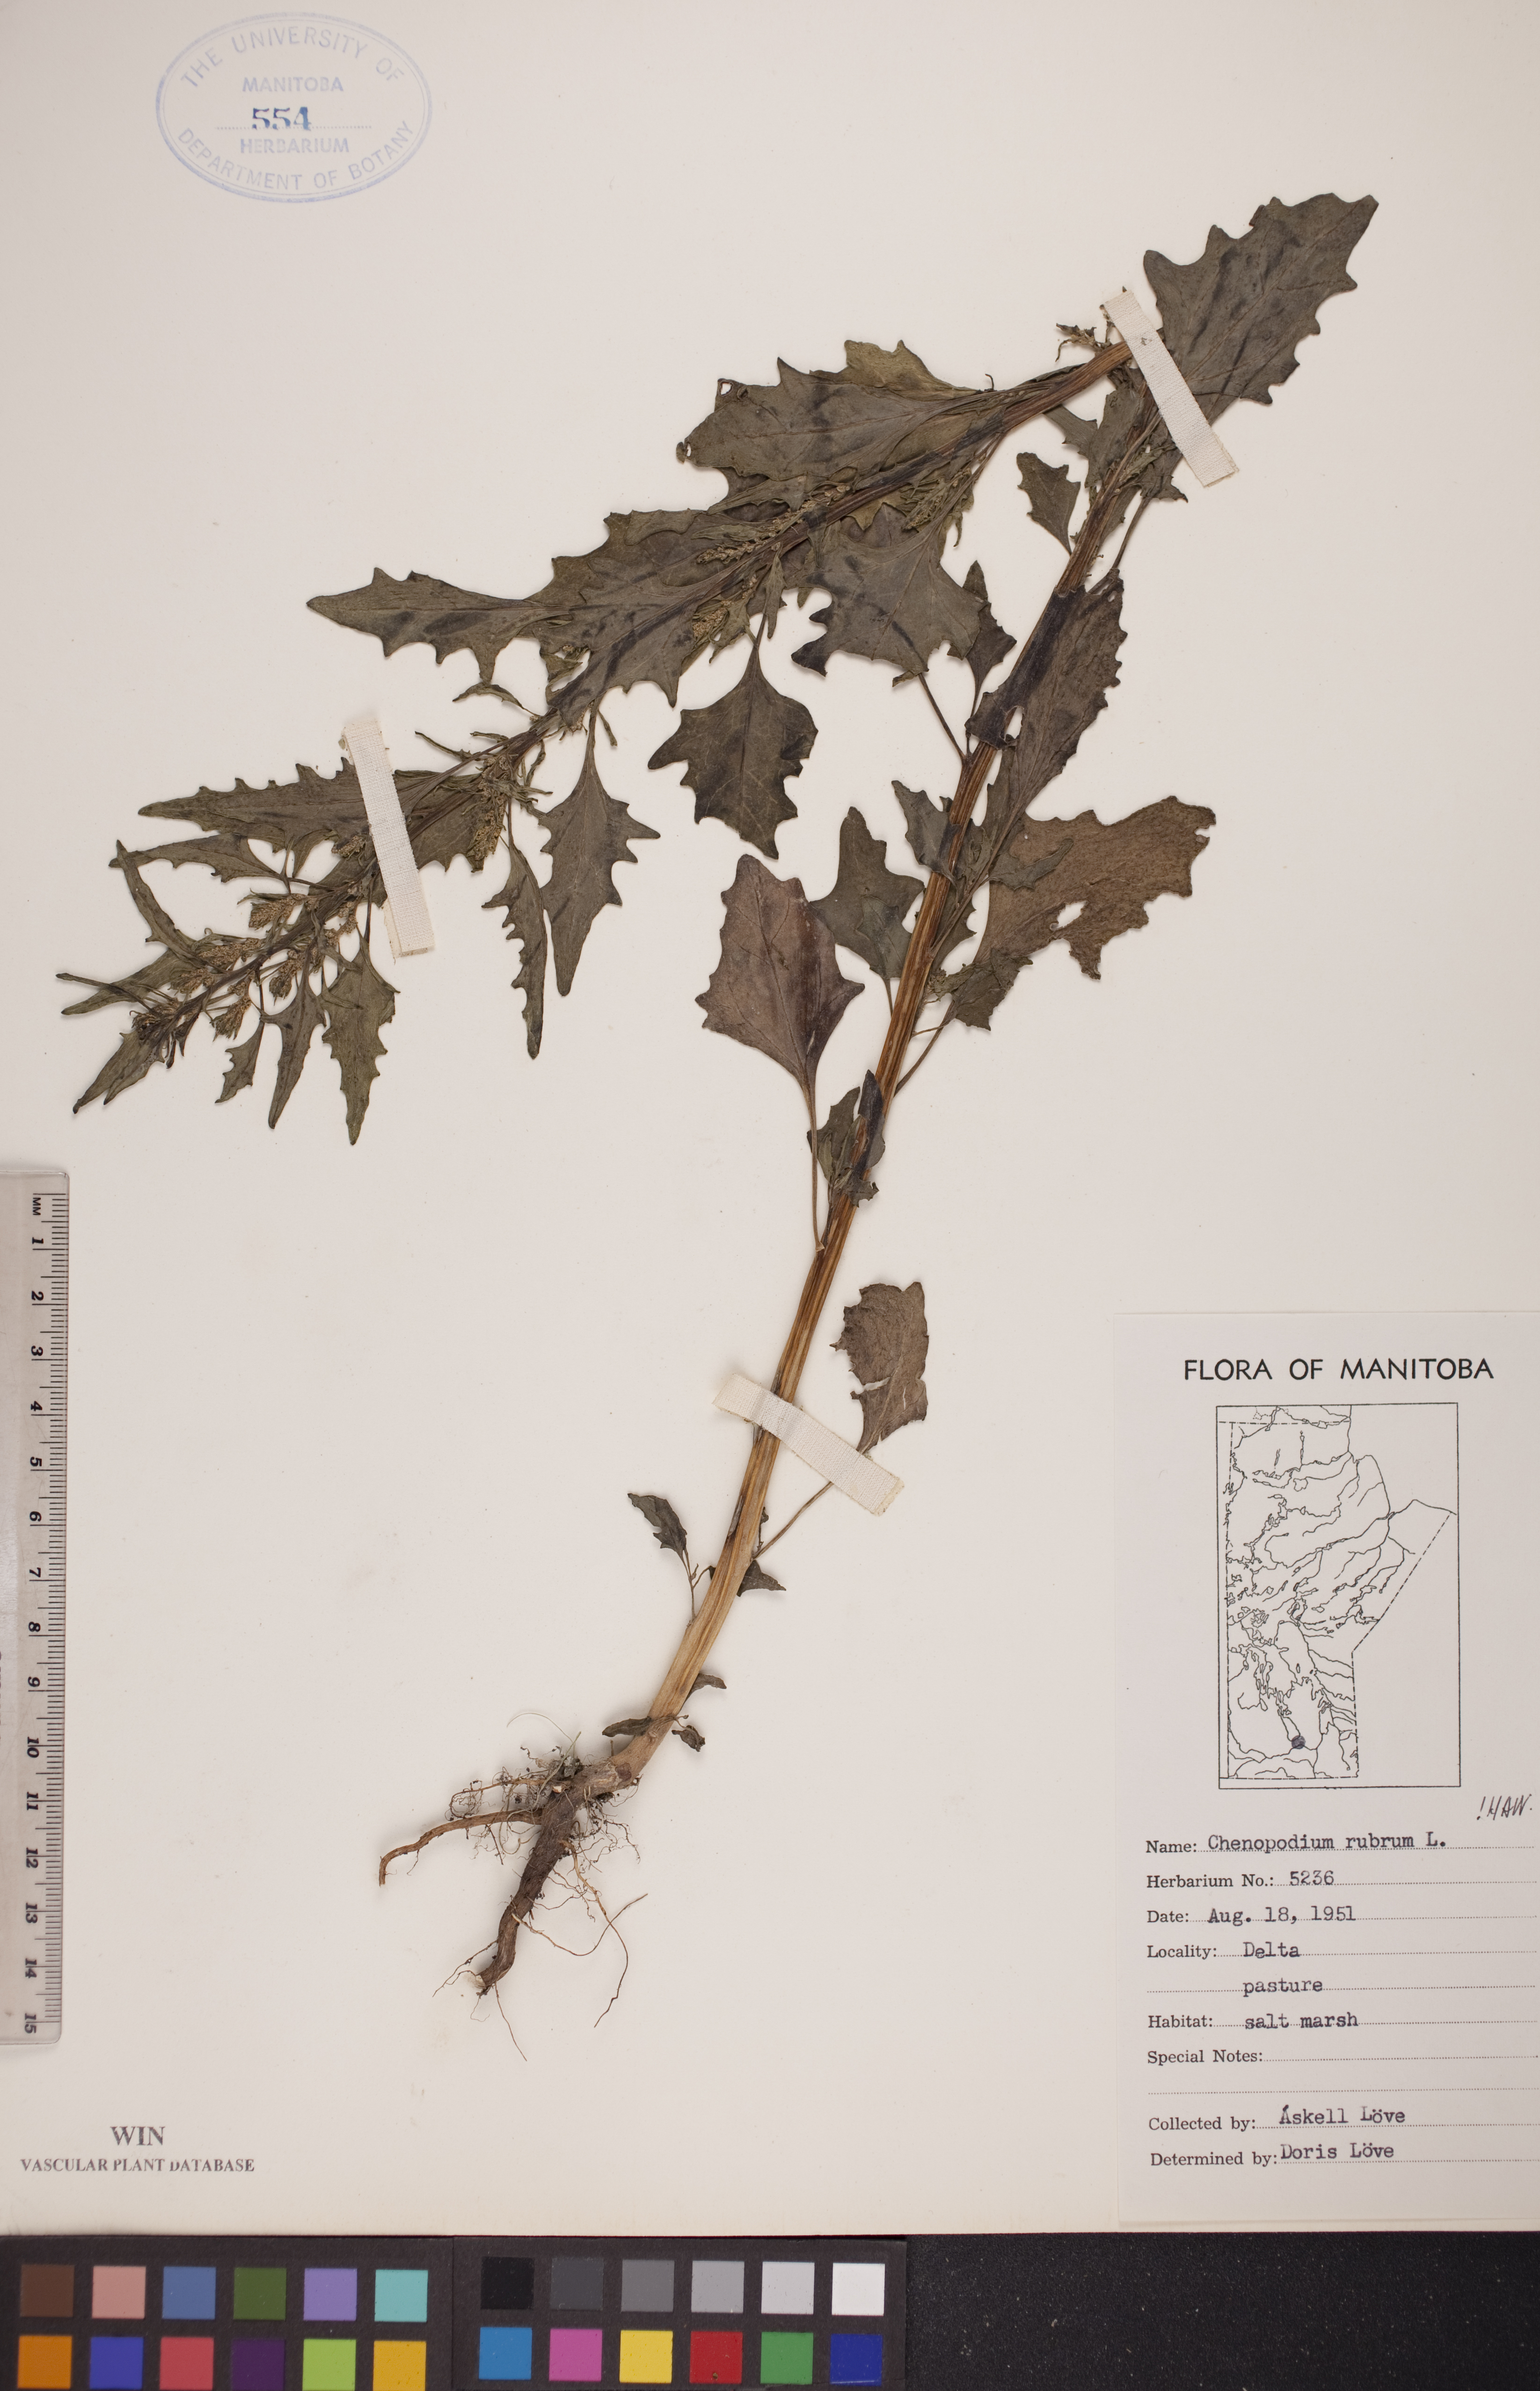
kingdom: Plantae
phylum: Tracheophyta
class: Magnoliopsida
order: Caryophyllales
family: Amaranthaceae
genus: Oxybasis
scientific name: Oxybasis rubra
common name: Red goosefoot
